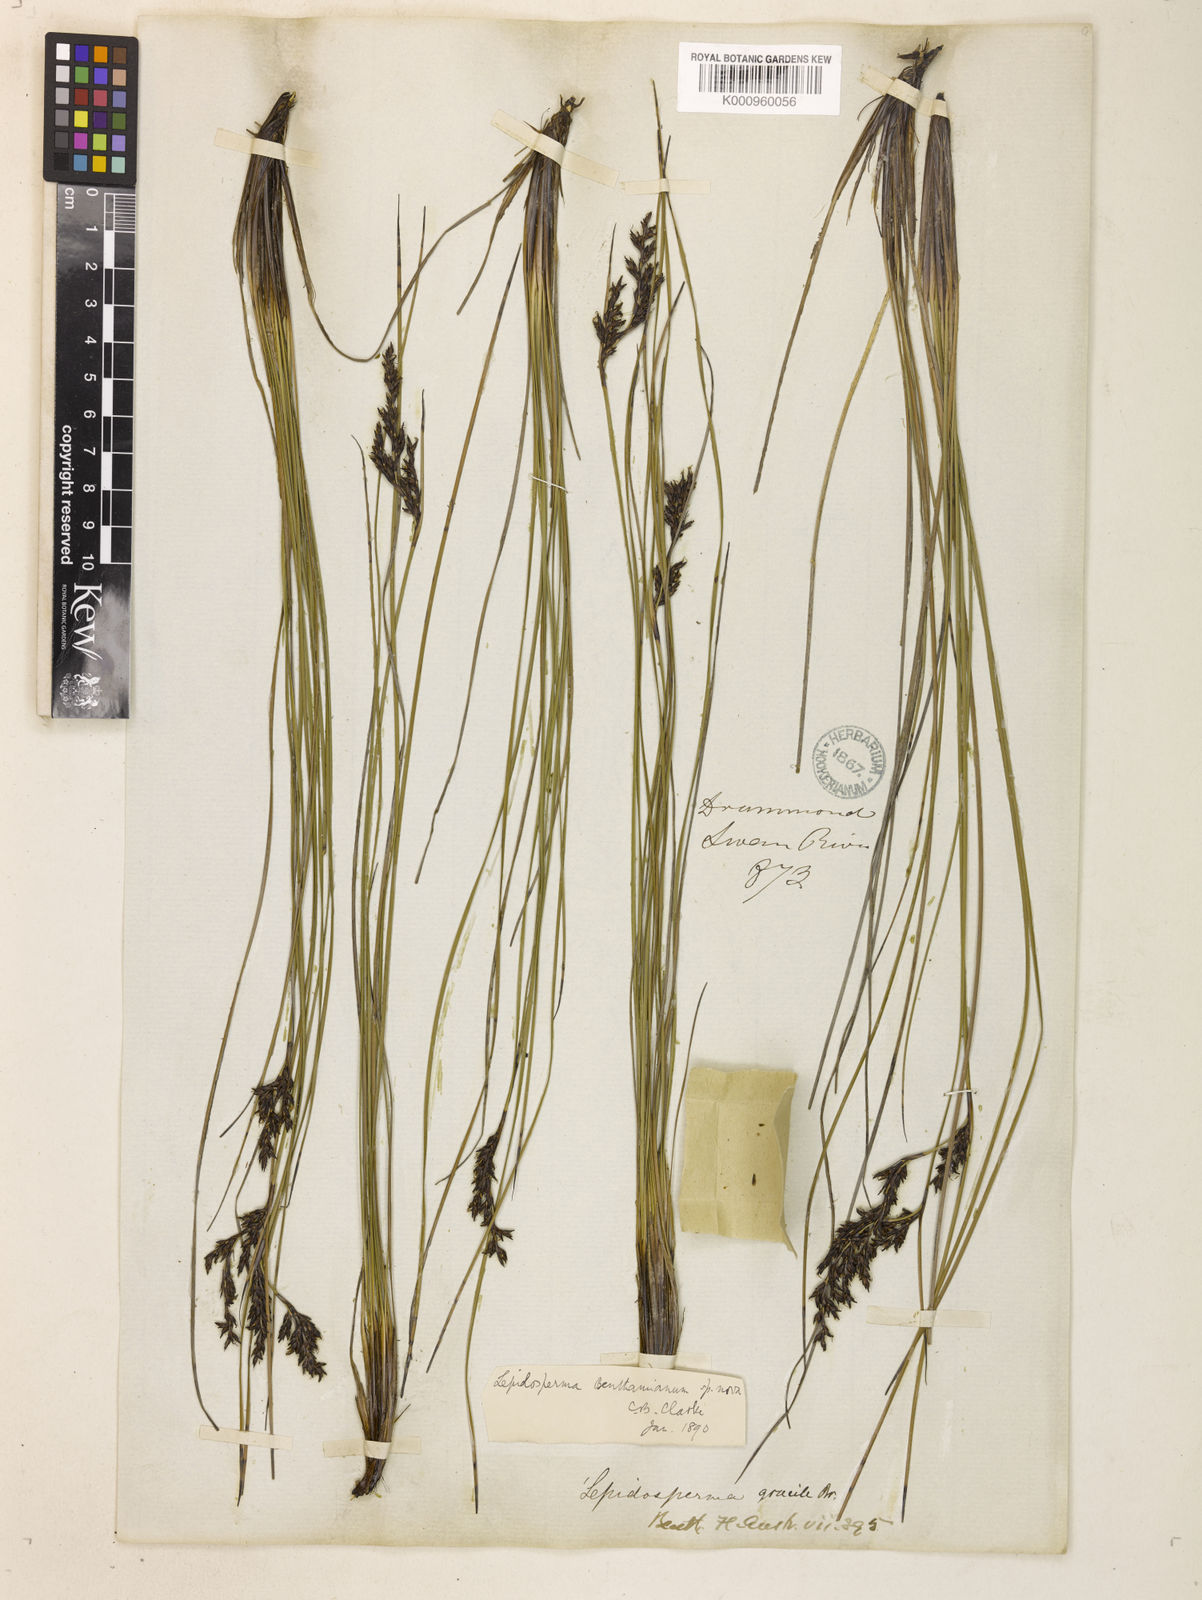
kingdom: Plantae
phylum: Tracheophyta
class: Liliopsida
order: Poales
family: Cyperaceae
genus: Lepidosperma
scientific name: Lepidosperma benthamianum
